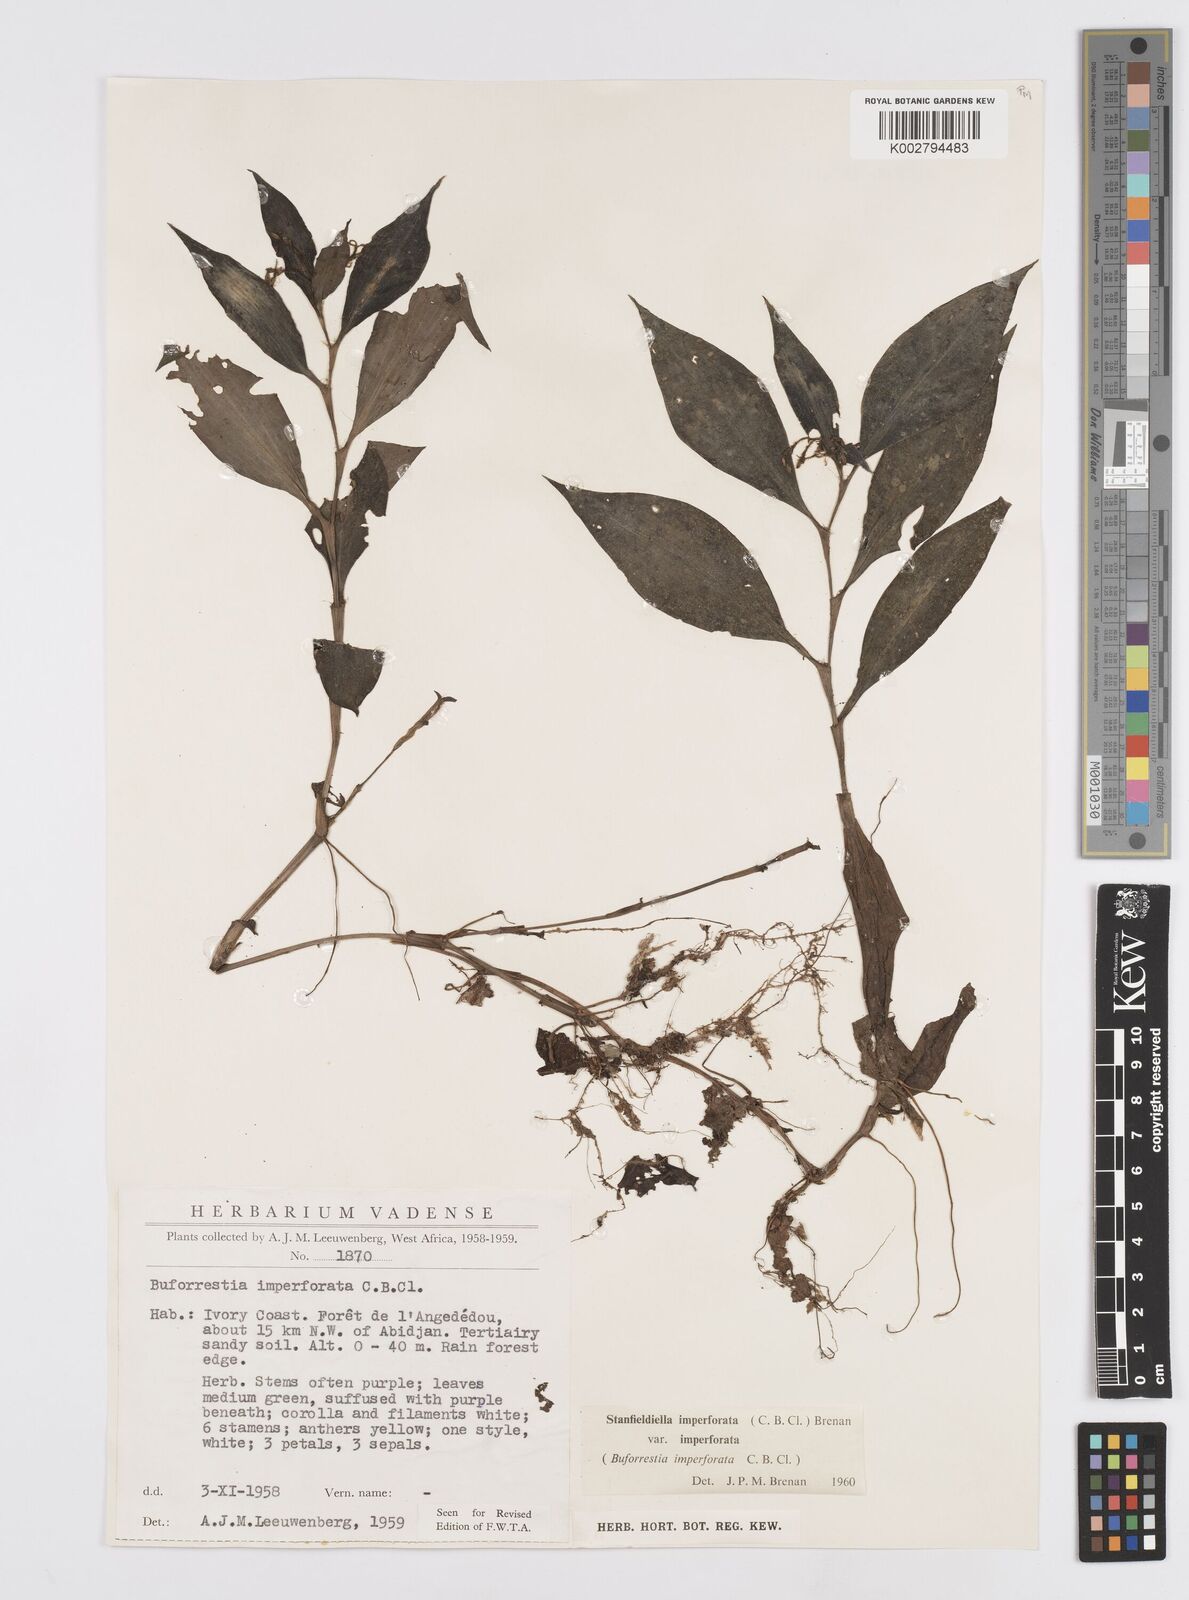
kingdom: Plantae
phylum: Tracheophyta
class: Liliopsida
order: Commelinales
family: Commelinaceae
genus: Stanfieldiella
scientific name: Stanfieldiella imperforata
